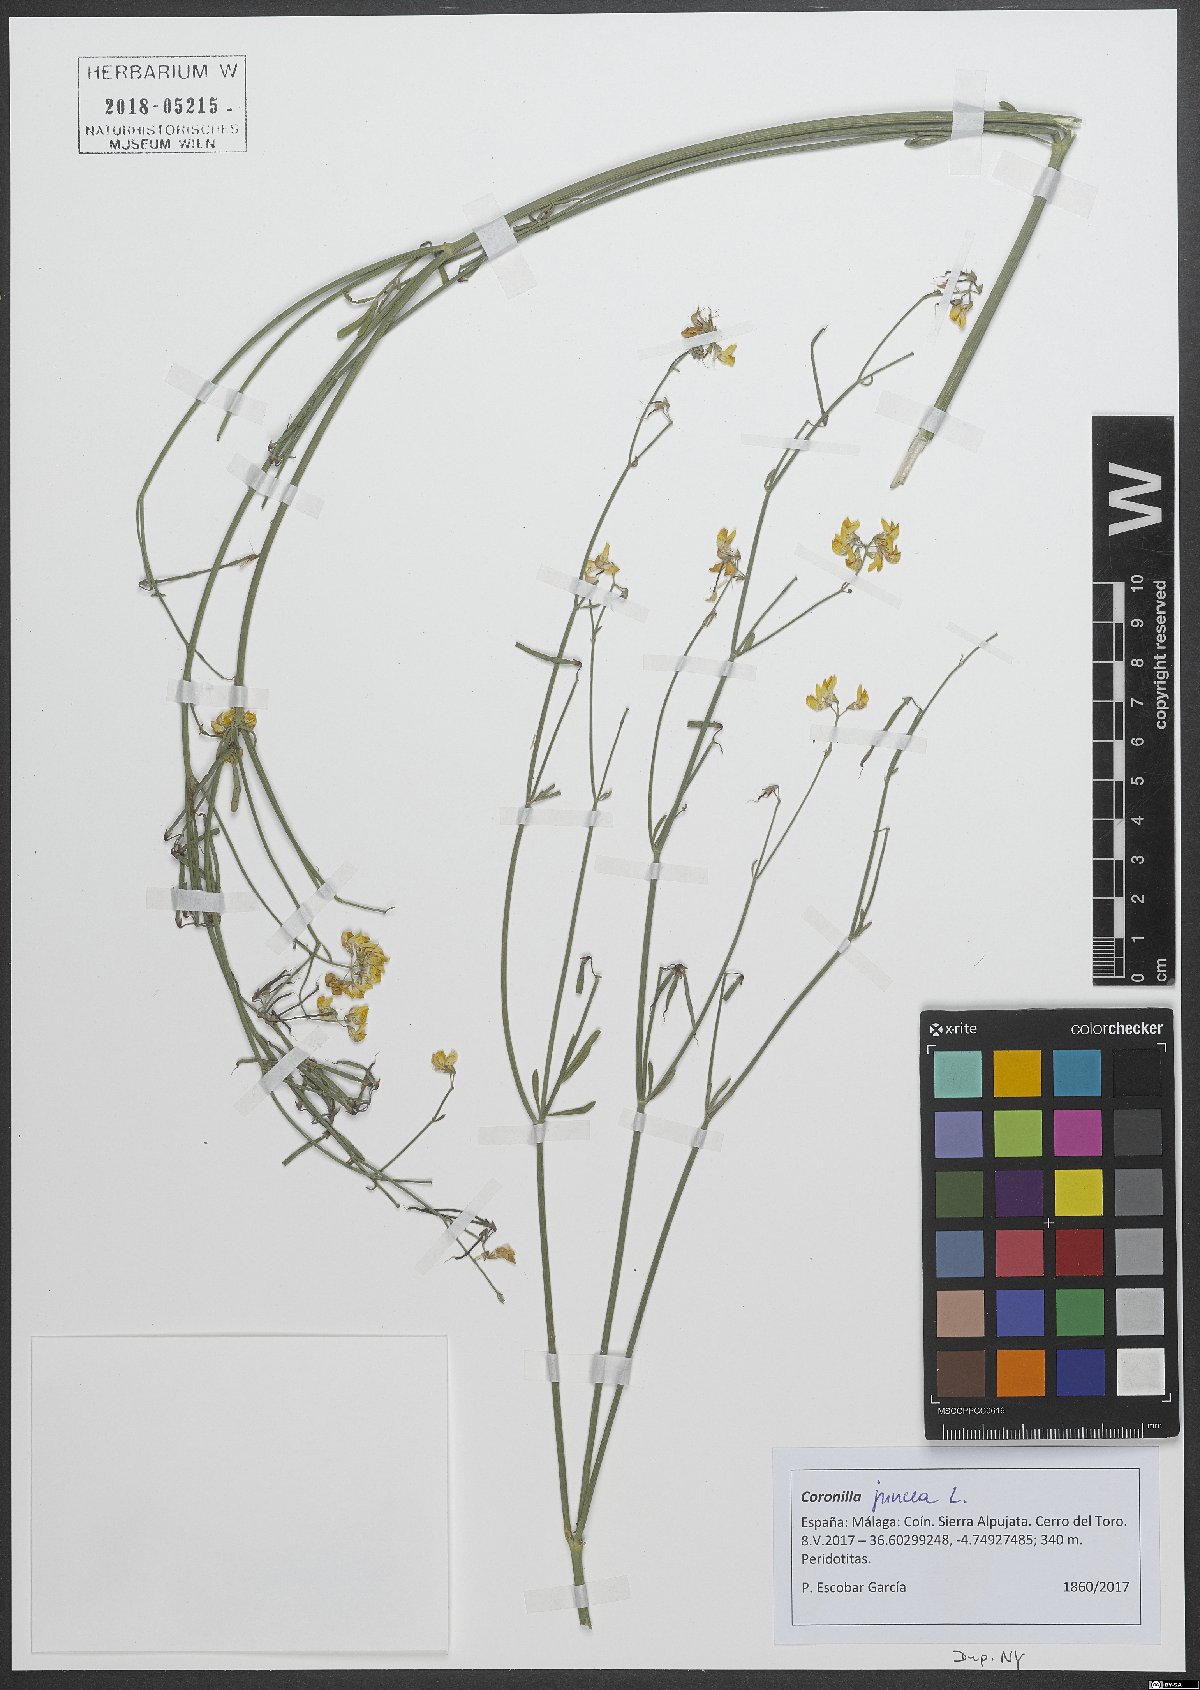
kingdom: Plantae
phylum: Tracheophyta
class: Magnoliopsida
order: Fabales
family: Fabaceae
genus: Coronilla
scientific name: Coronilla juncea
